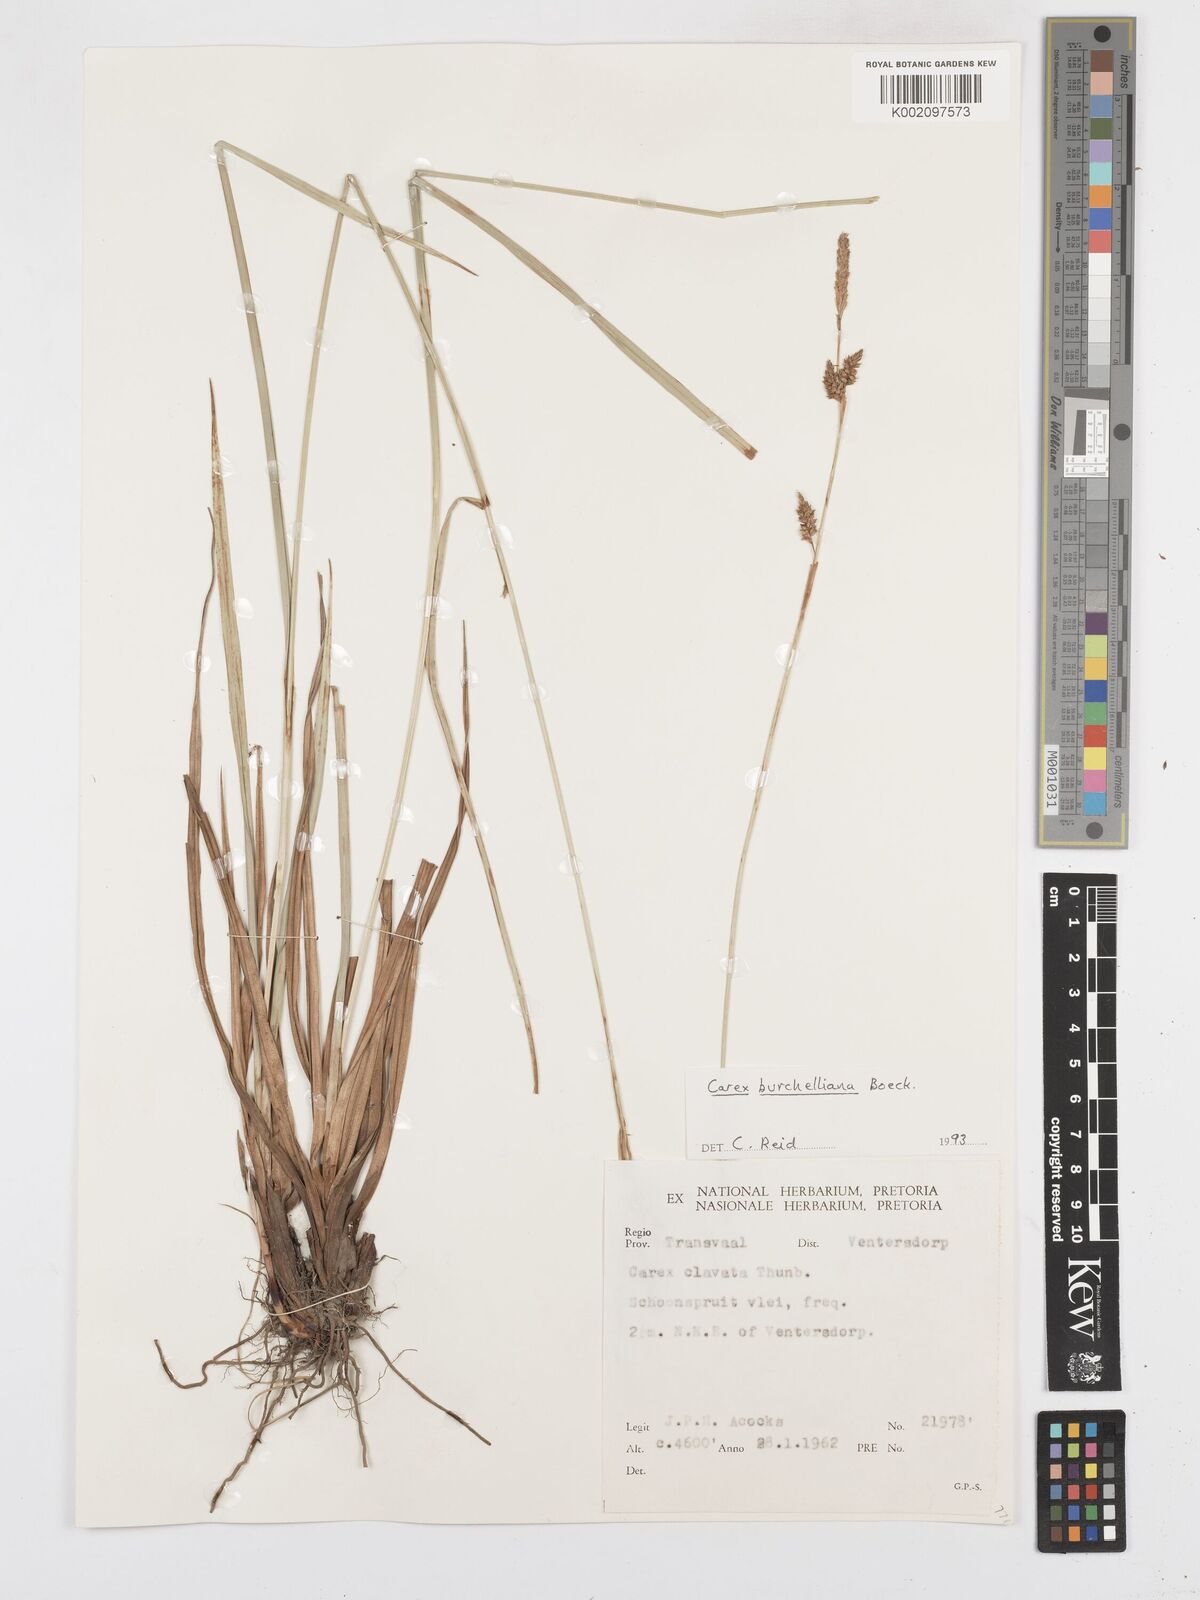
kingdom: Plantae
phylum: Tracheophyta
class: Liliopsida
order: Poales
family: Cyperaceae
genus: Carex
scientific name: Carex burchelliana
